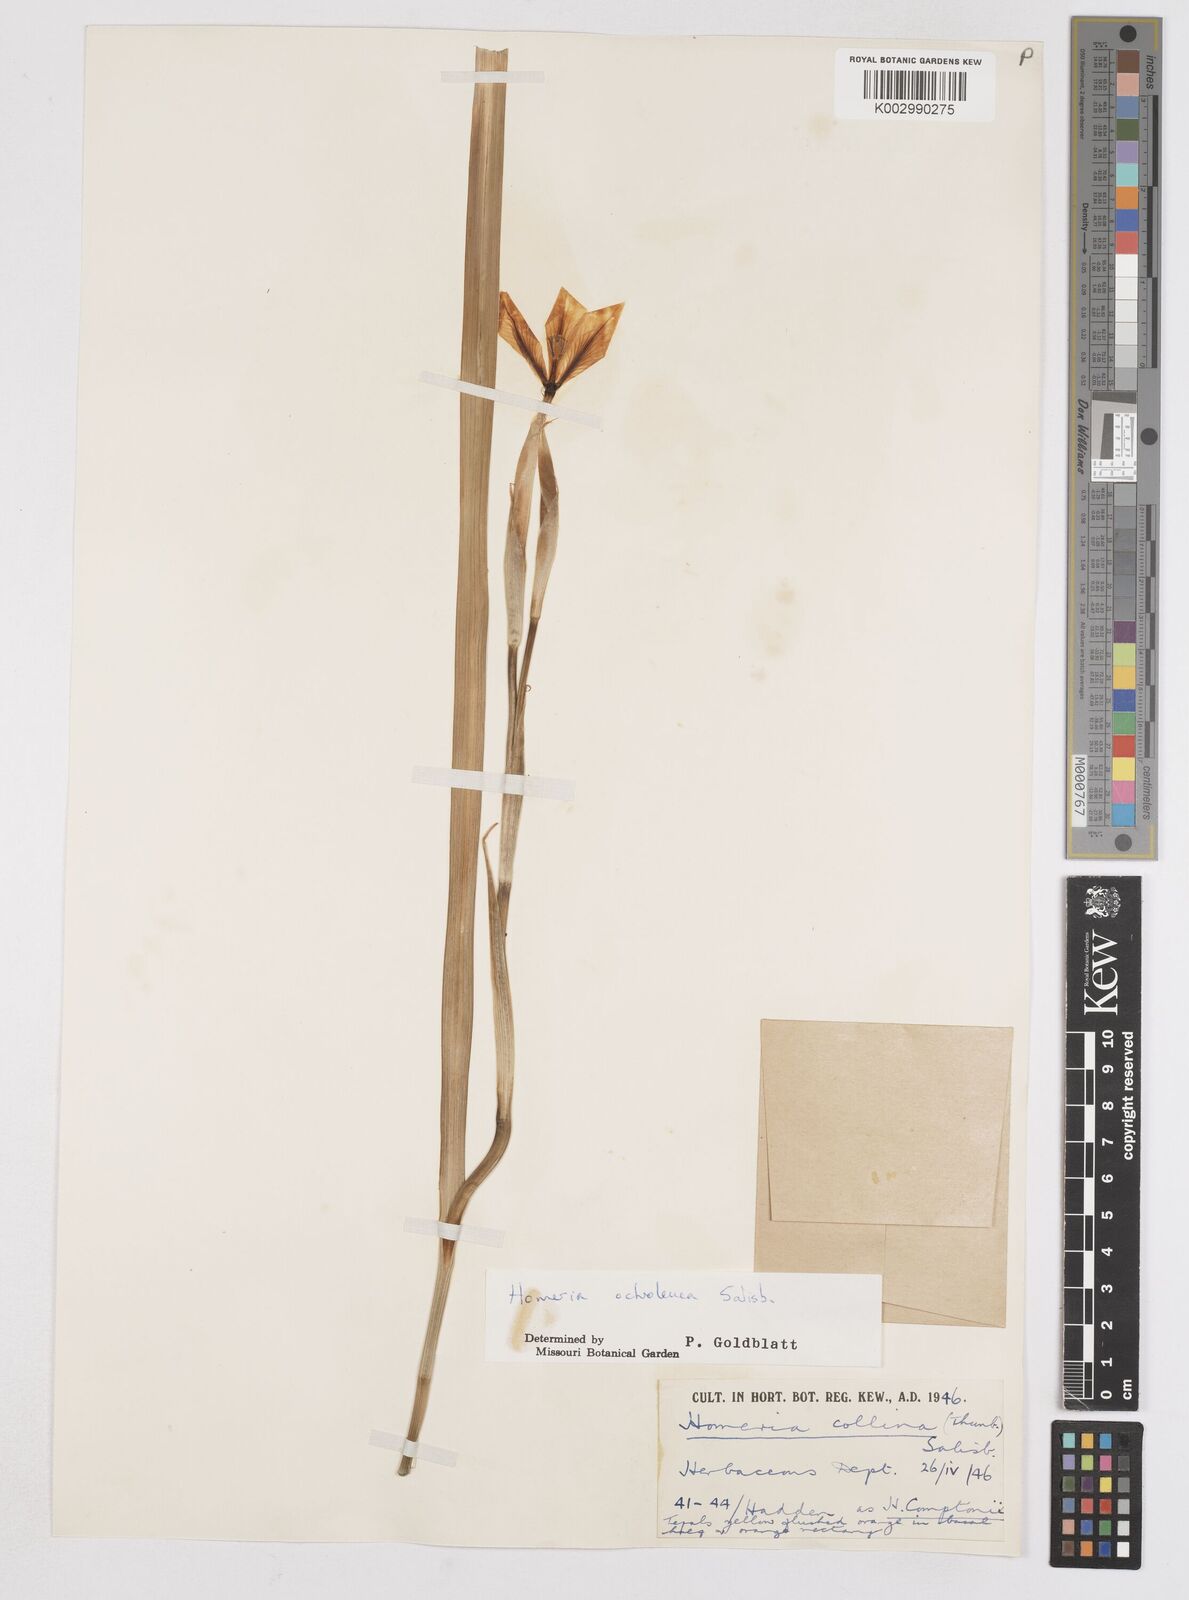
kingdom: Plantae
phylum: Tracheophyta
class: Liliopsida
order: Asparagales
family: Iridaceae
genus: Moraea
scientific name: Moraea ochroleuca
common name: Red tulp
